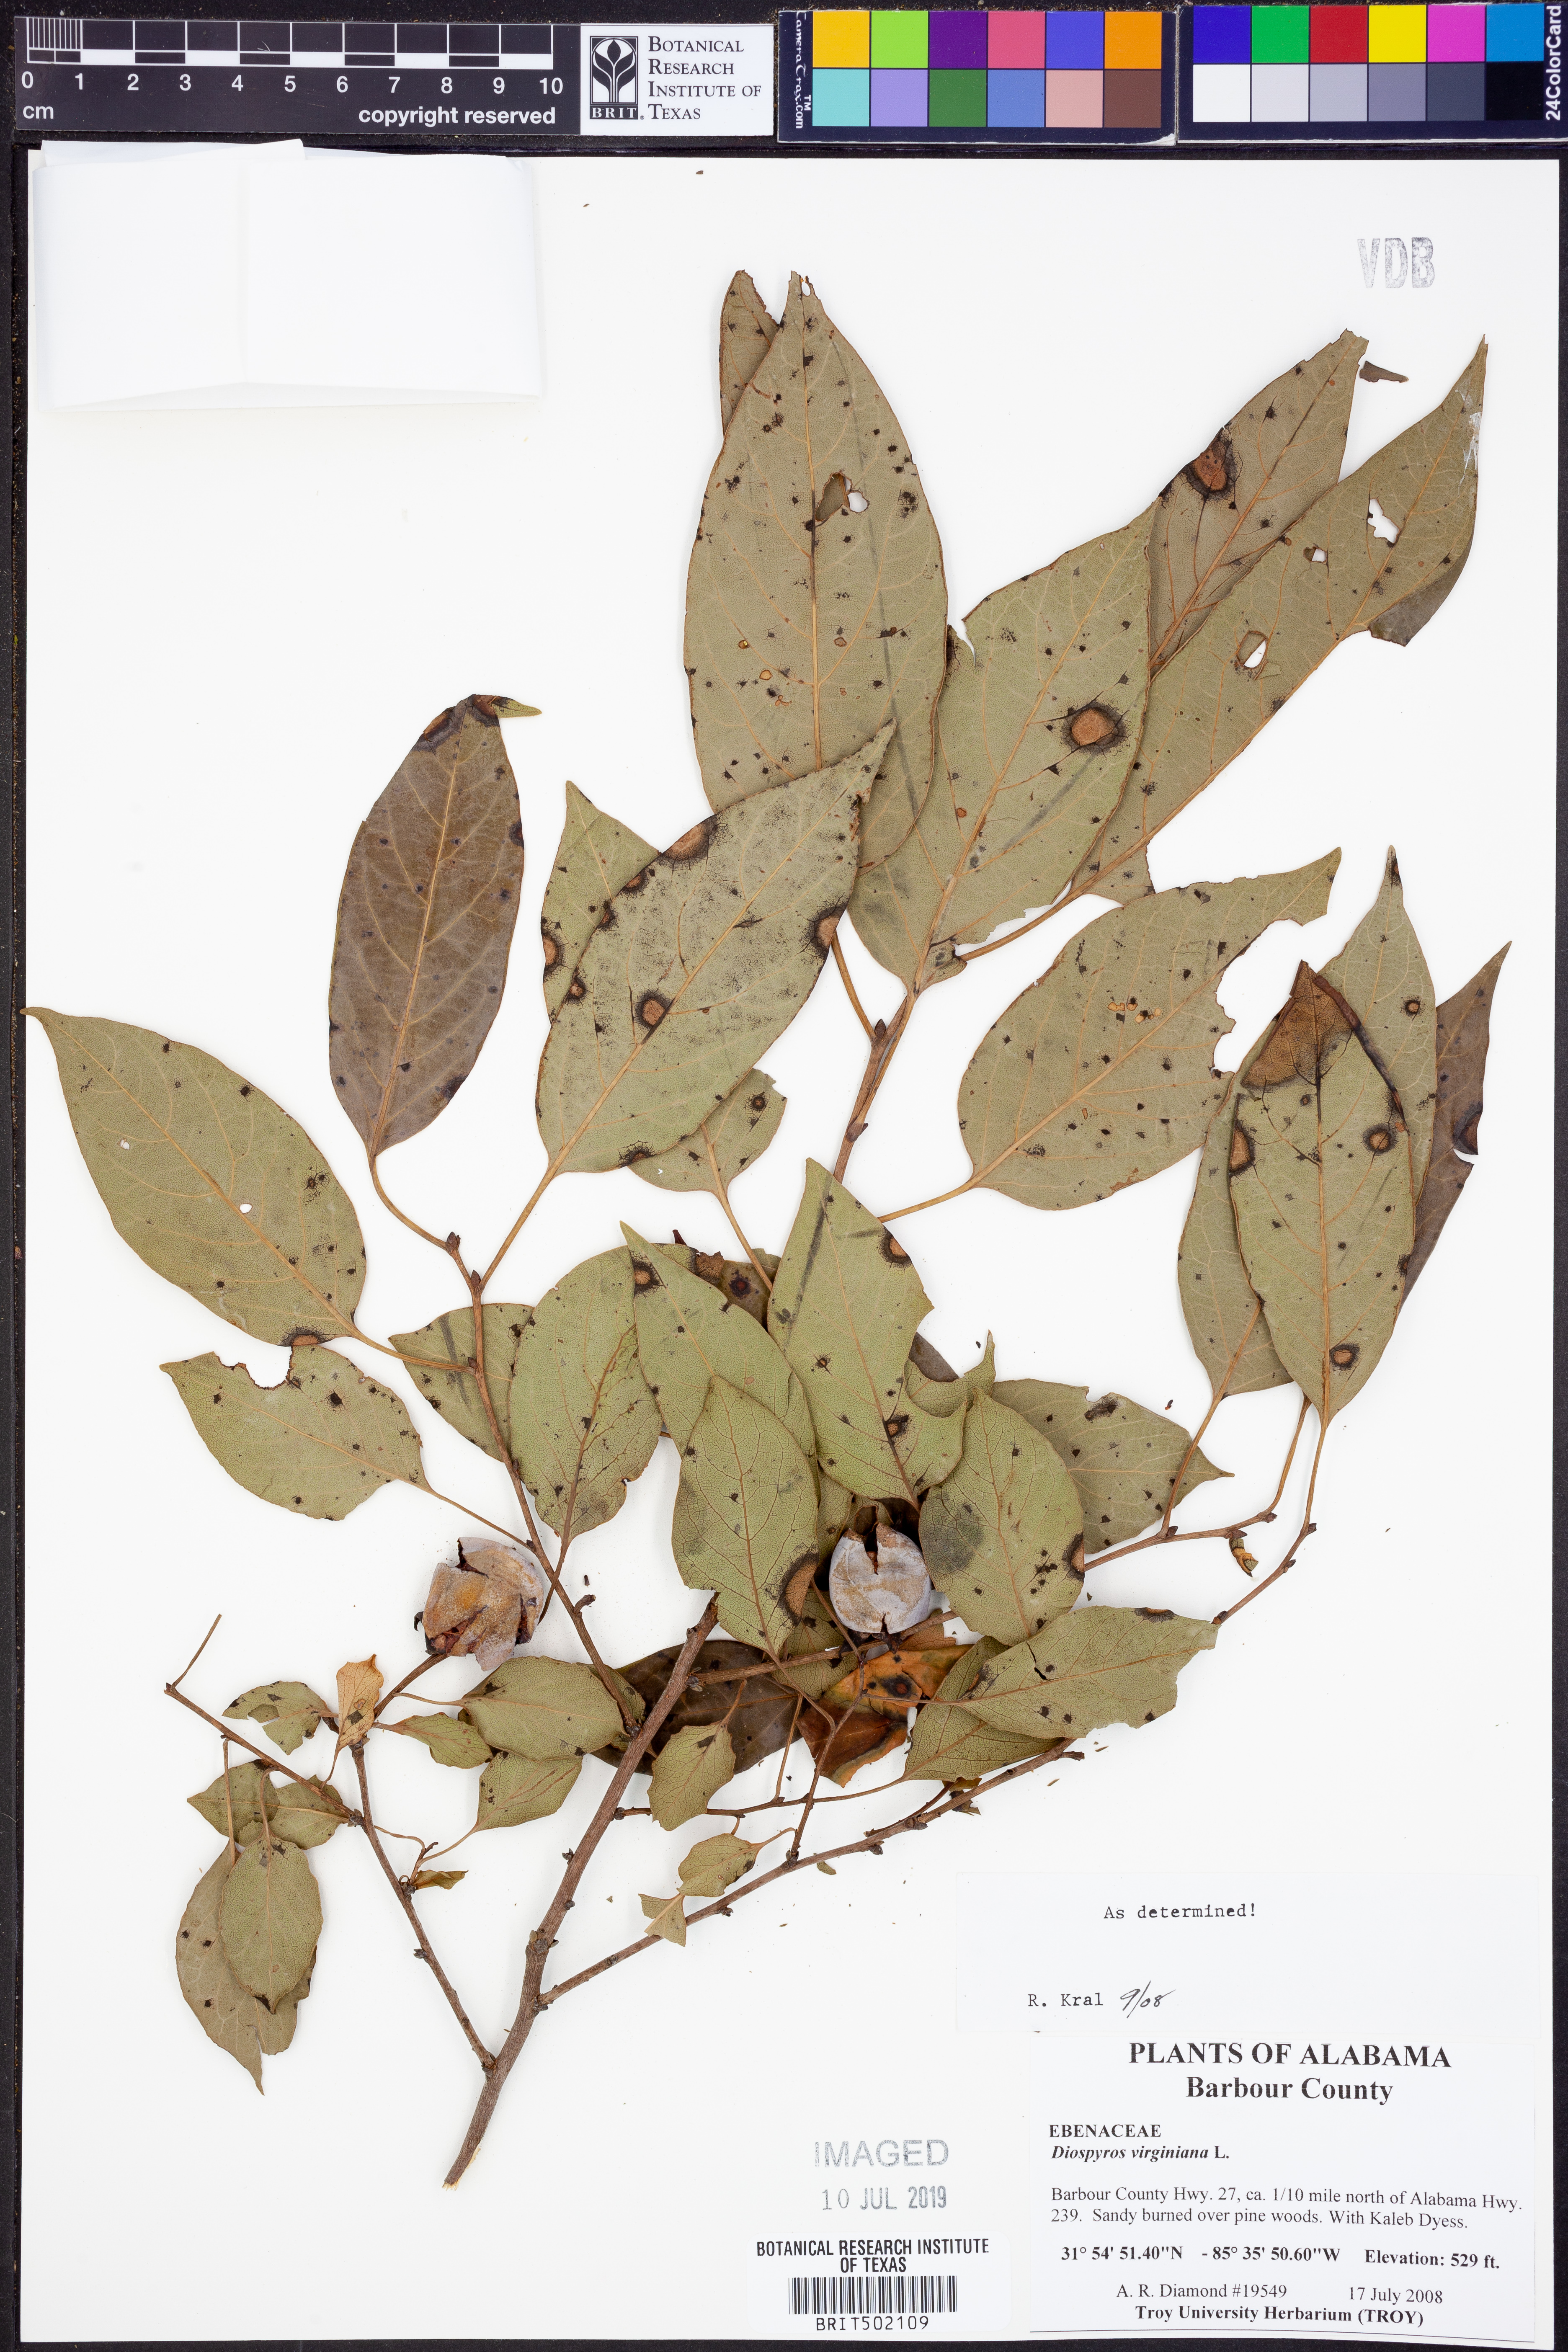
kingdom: Plantae
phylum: Tracheophyta
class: Magnoliopsida
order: Ericales
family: Ebenaceae
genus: Diospyros
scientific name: Diospyros virginiana
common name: Persimmon
